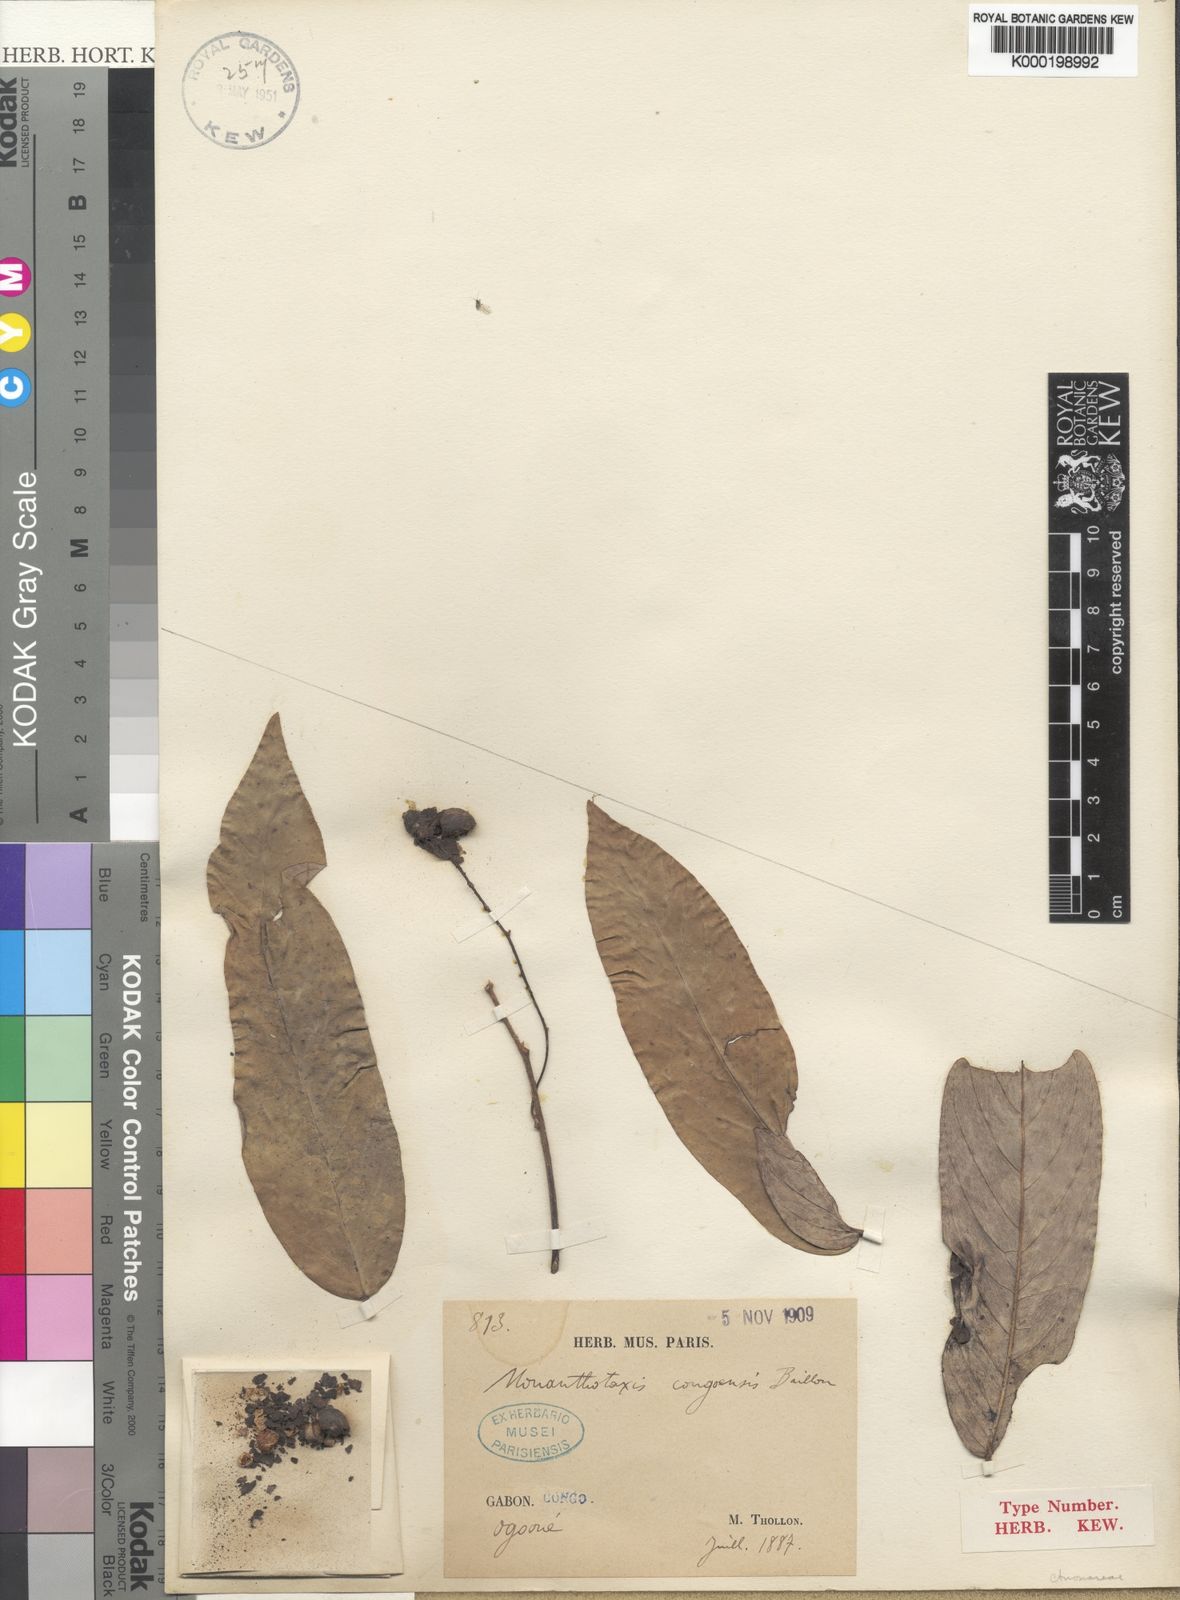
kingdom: Plantae
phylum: Tracheophyta
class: Magnoliopsida
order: Magnoliales
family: Annonaceae
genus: Monanthotaxis
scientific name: Monanthotaxis congoensis
